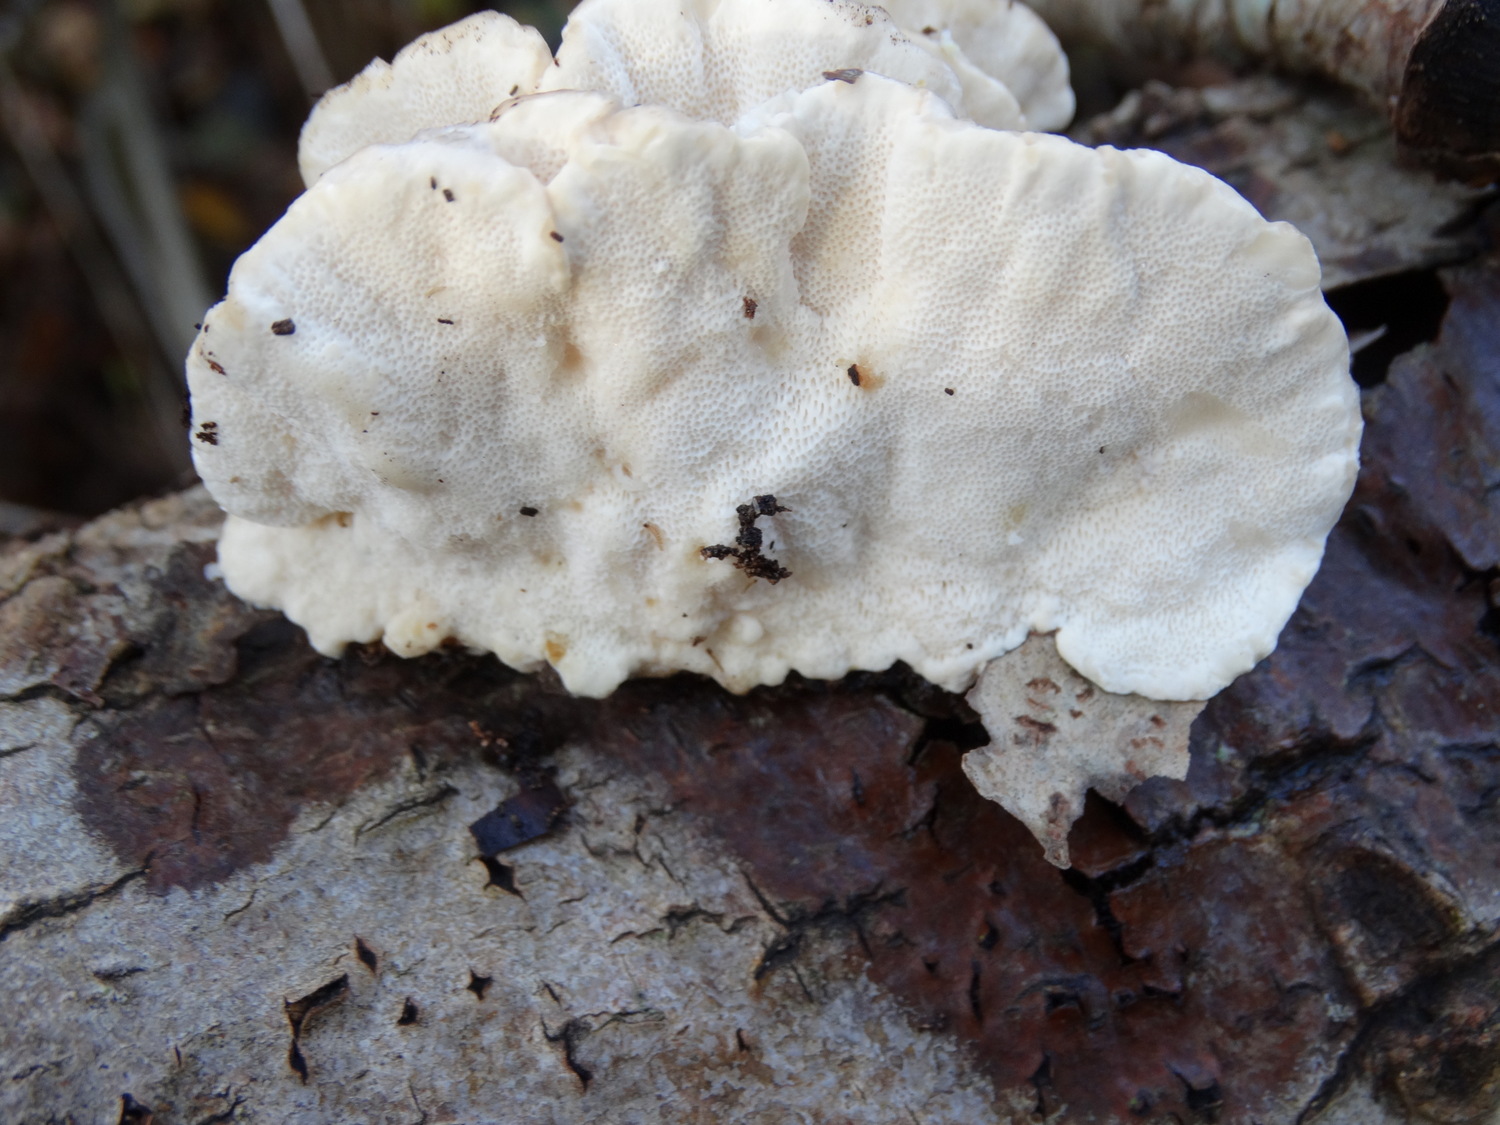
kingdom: Fungi
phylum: Basidiomycota
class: Agaricomycetes
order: Polyporales
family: Polyporaceae
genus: Trametes
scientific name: Trametes ochracea
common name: bæltet læderporesvamp
